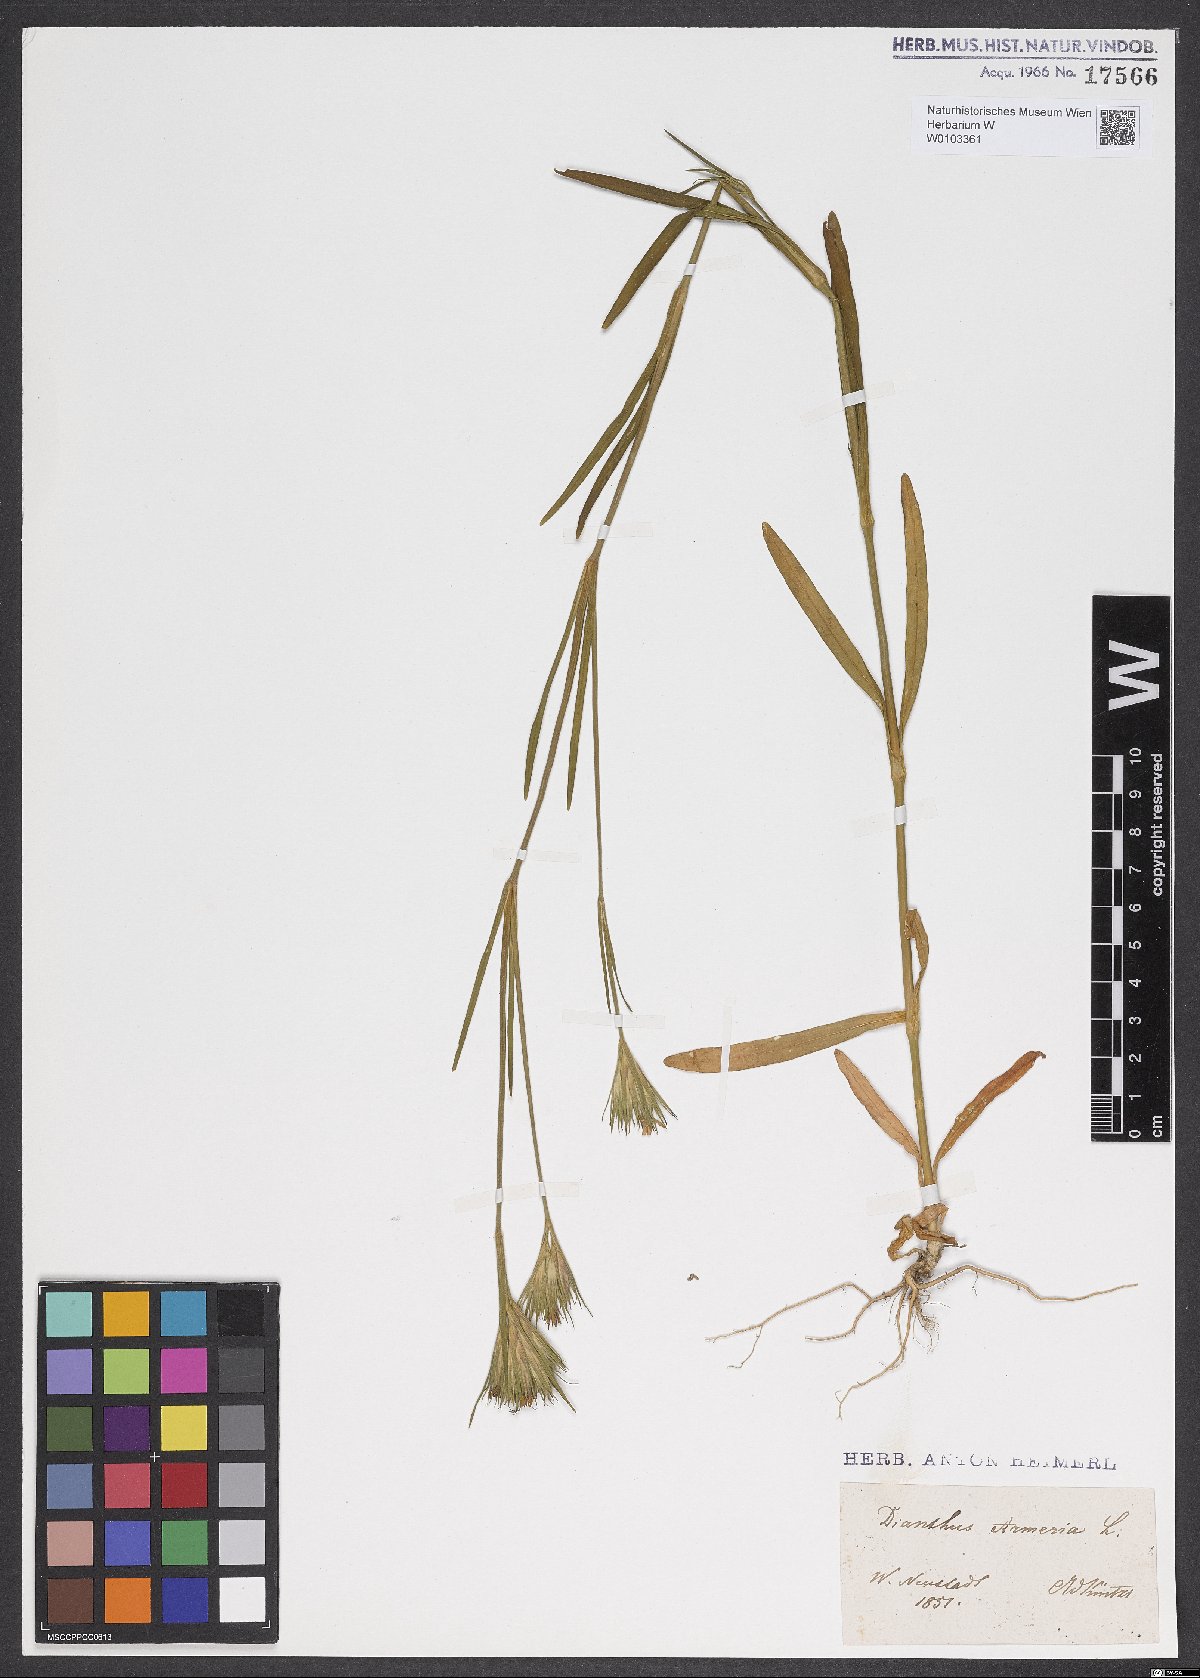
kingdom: Plantae
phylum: Tracheophyta
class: Magnoliopsida
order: Caryophyllales
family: Caryophyllaceae
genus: Dianthus
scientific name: Dianthus armeria
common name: Deptford pink
